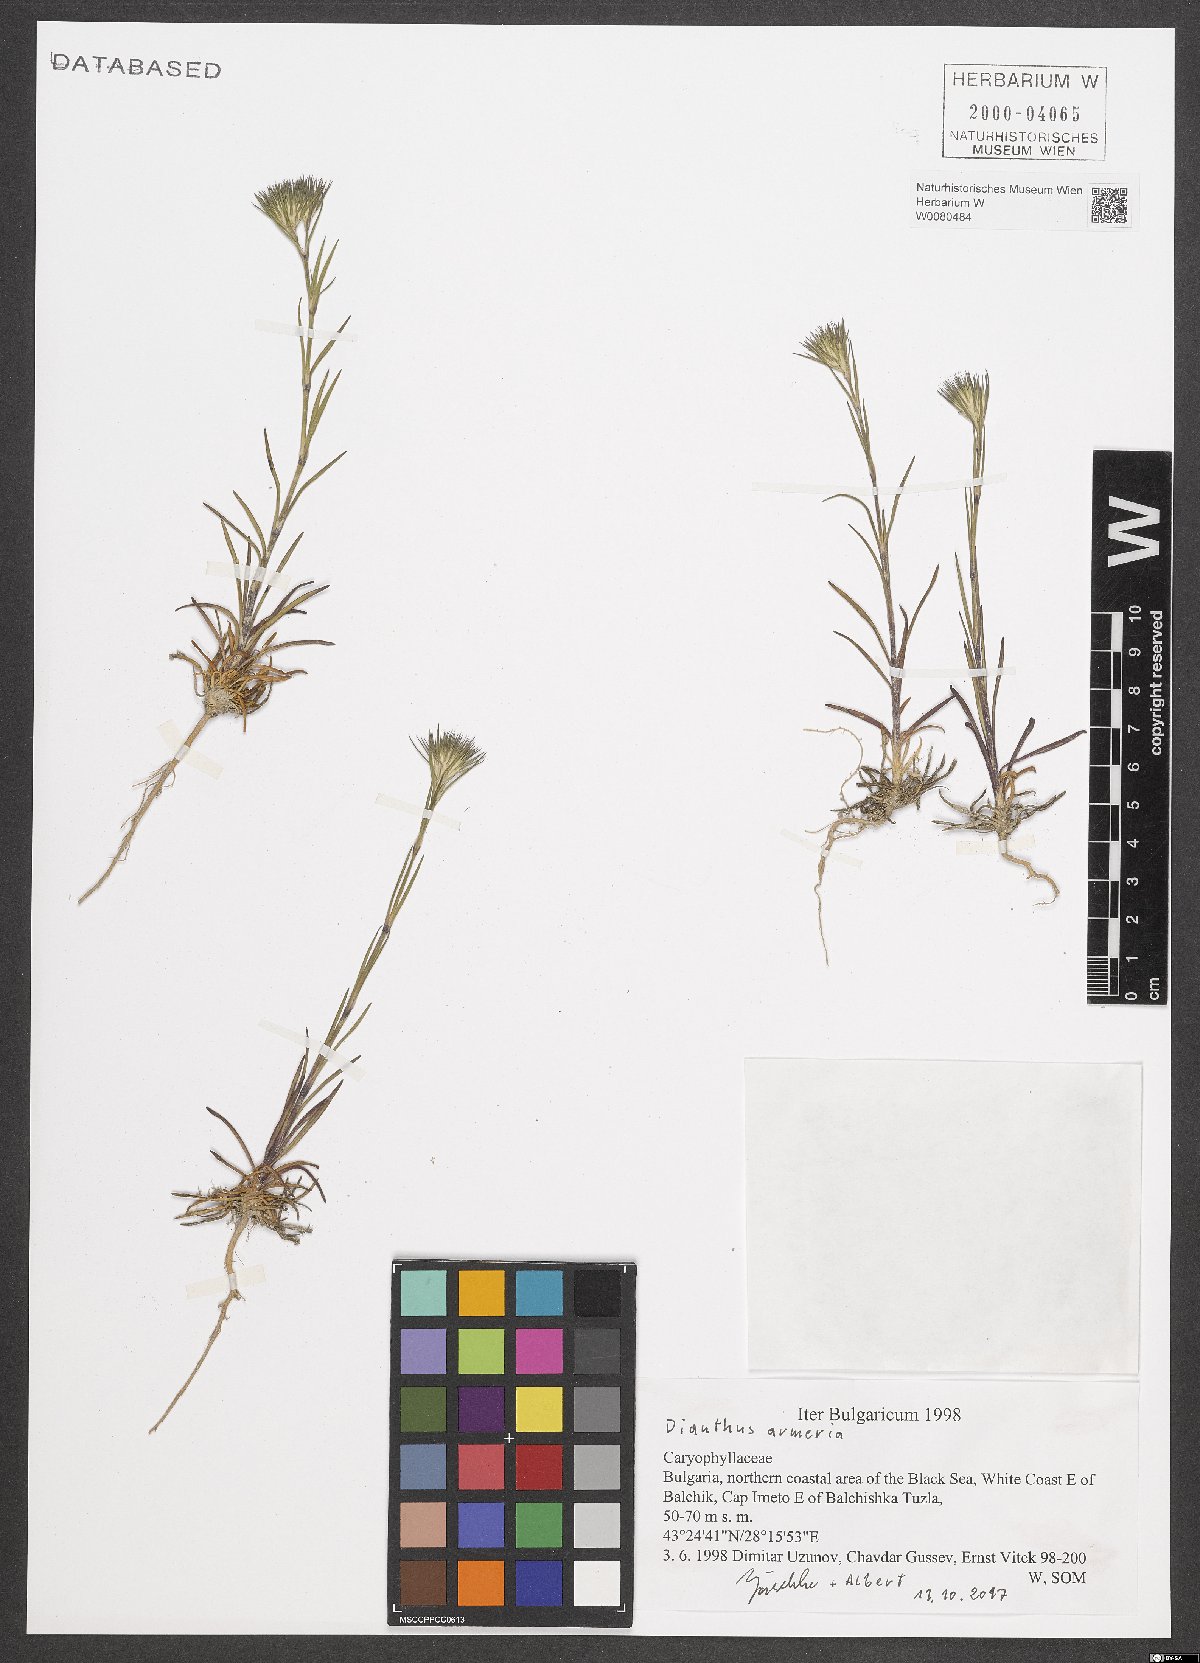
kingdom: Plantae
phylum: Tracheophyta
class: Magnoliopsida
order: Caryophyllales
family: Caryophyllaceae
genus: Dianthus
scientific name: Dianthus armeria
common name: Deptford pink
